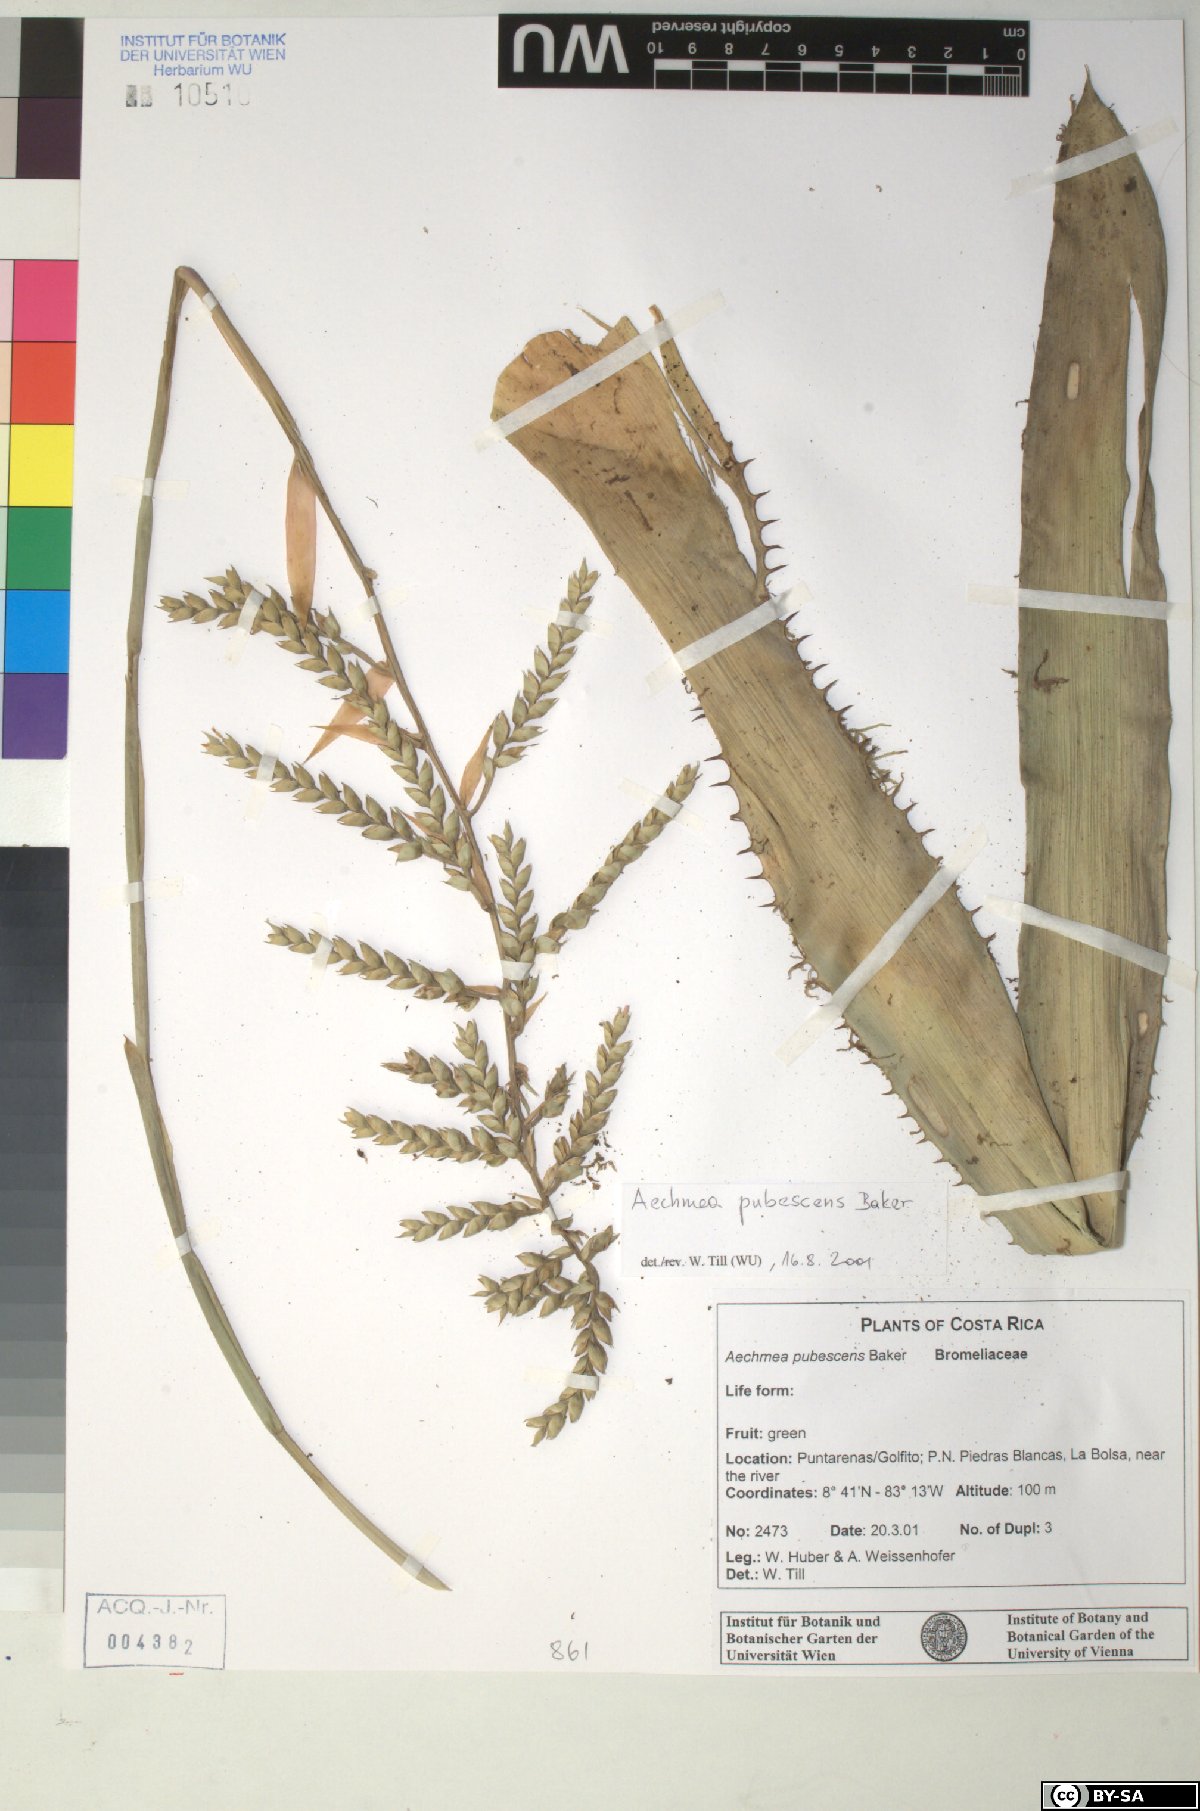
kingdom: Plantae
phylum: Tracheophyta
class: Liliopsida
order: Poales
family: Bromeliaceae
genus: Aechmea
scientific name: Aechmea pubescens
